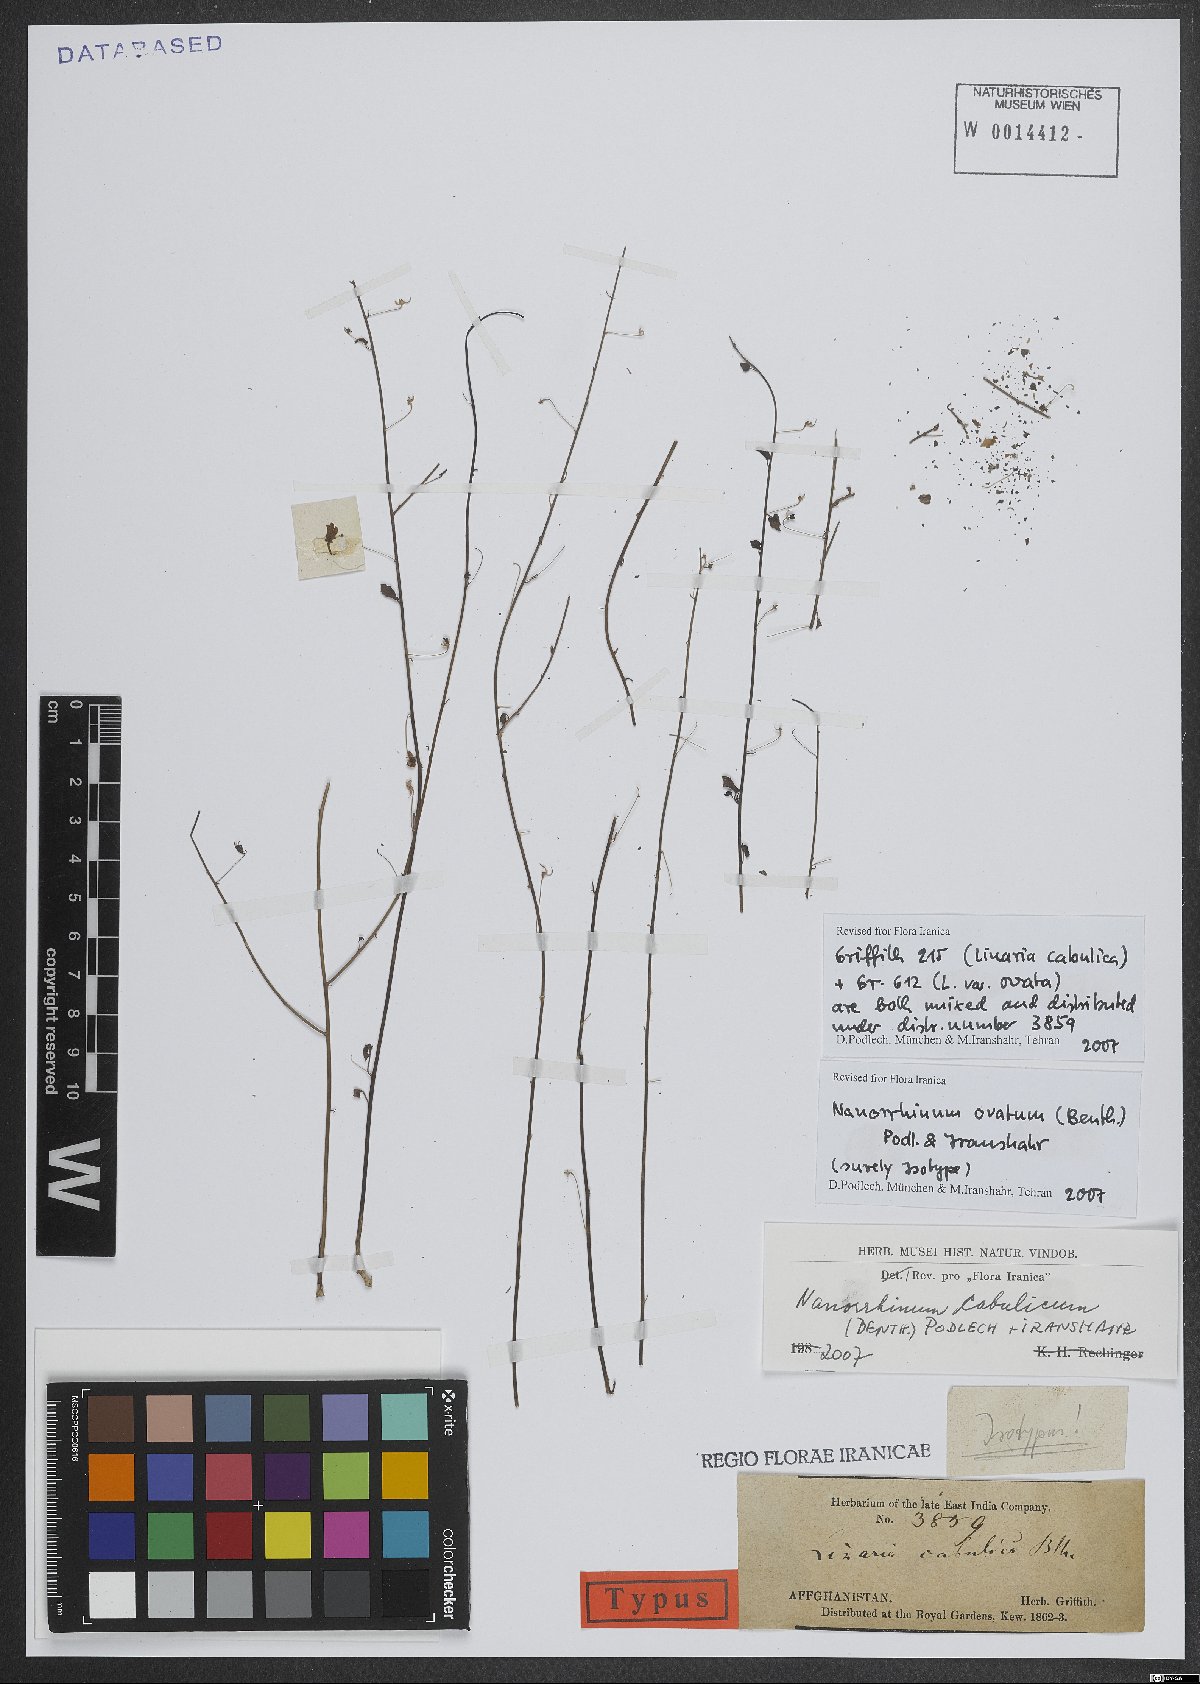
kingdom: Plantae
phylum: Tracheophyta
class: Magnoliopsida
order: Lamiales
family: Plantaginaceae
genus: Nanorrhinum
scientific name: Nanorrhinum ovatum
